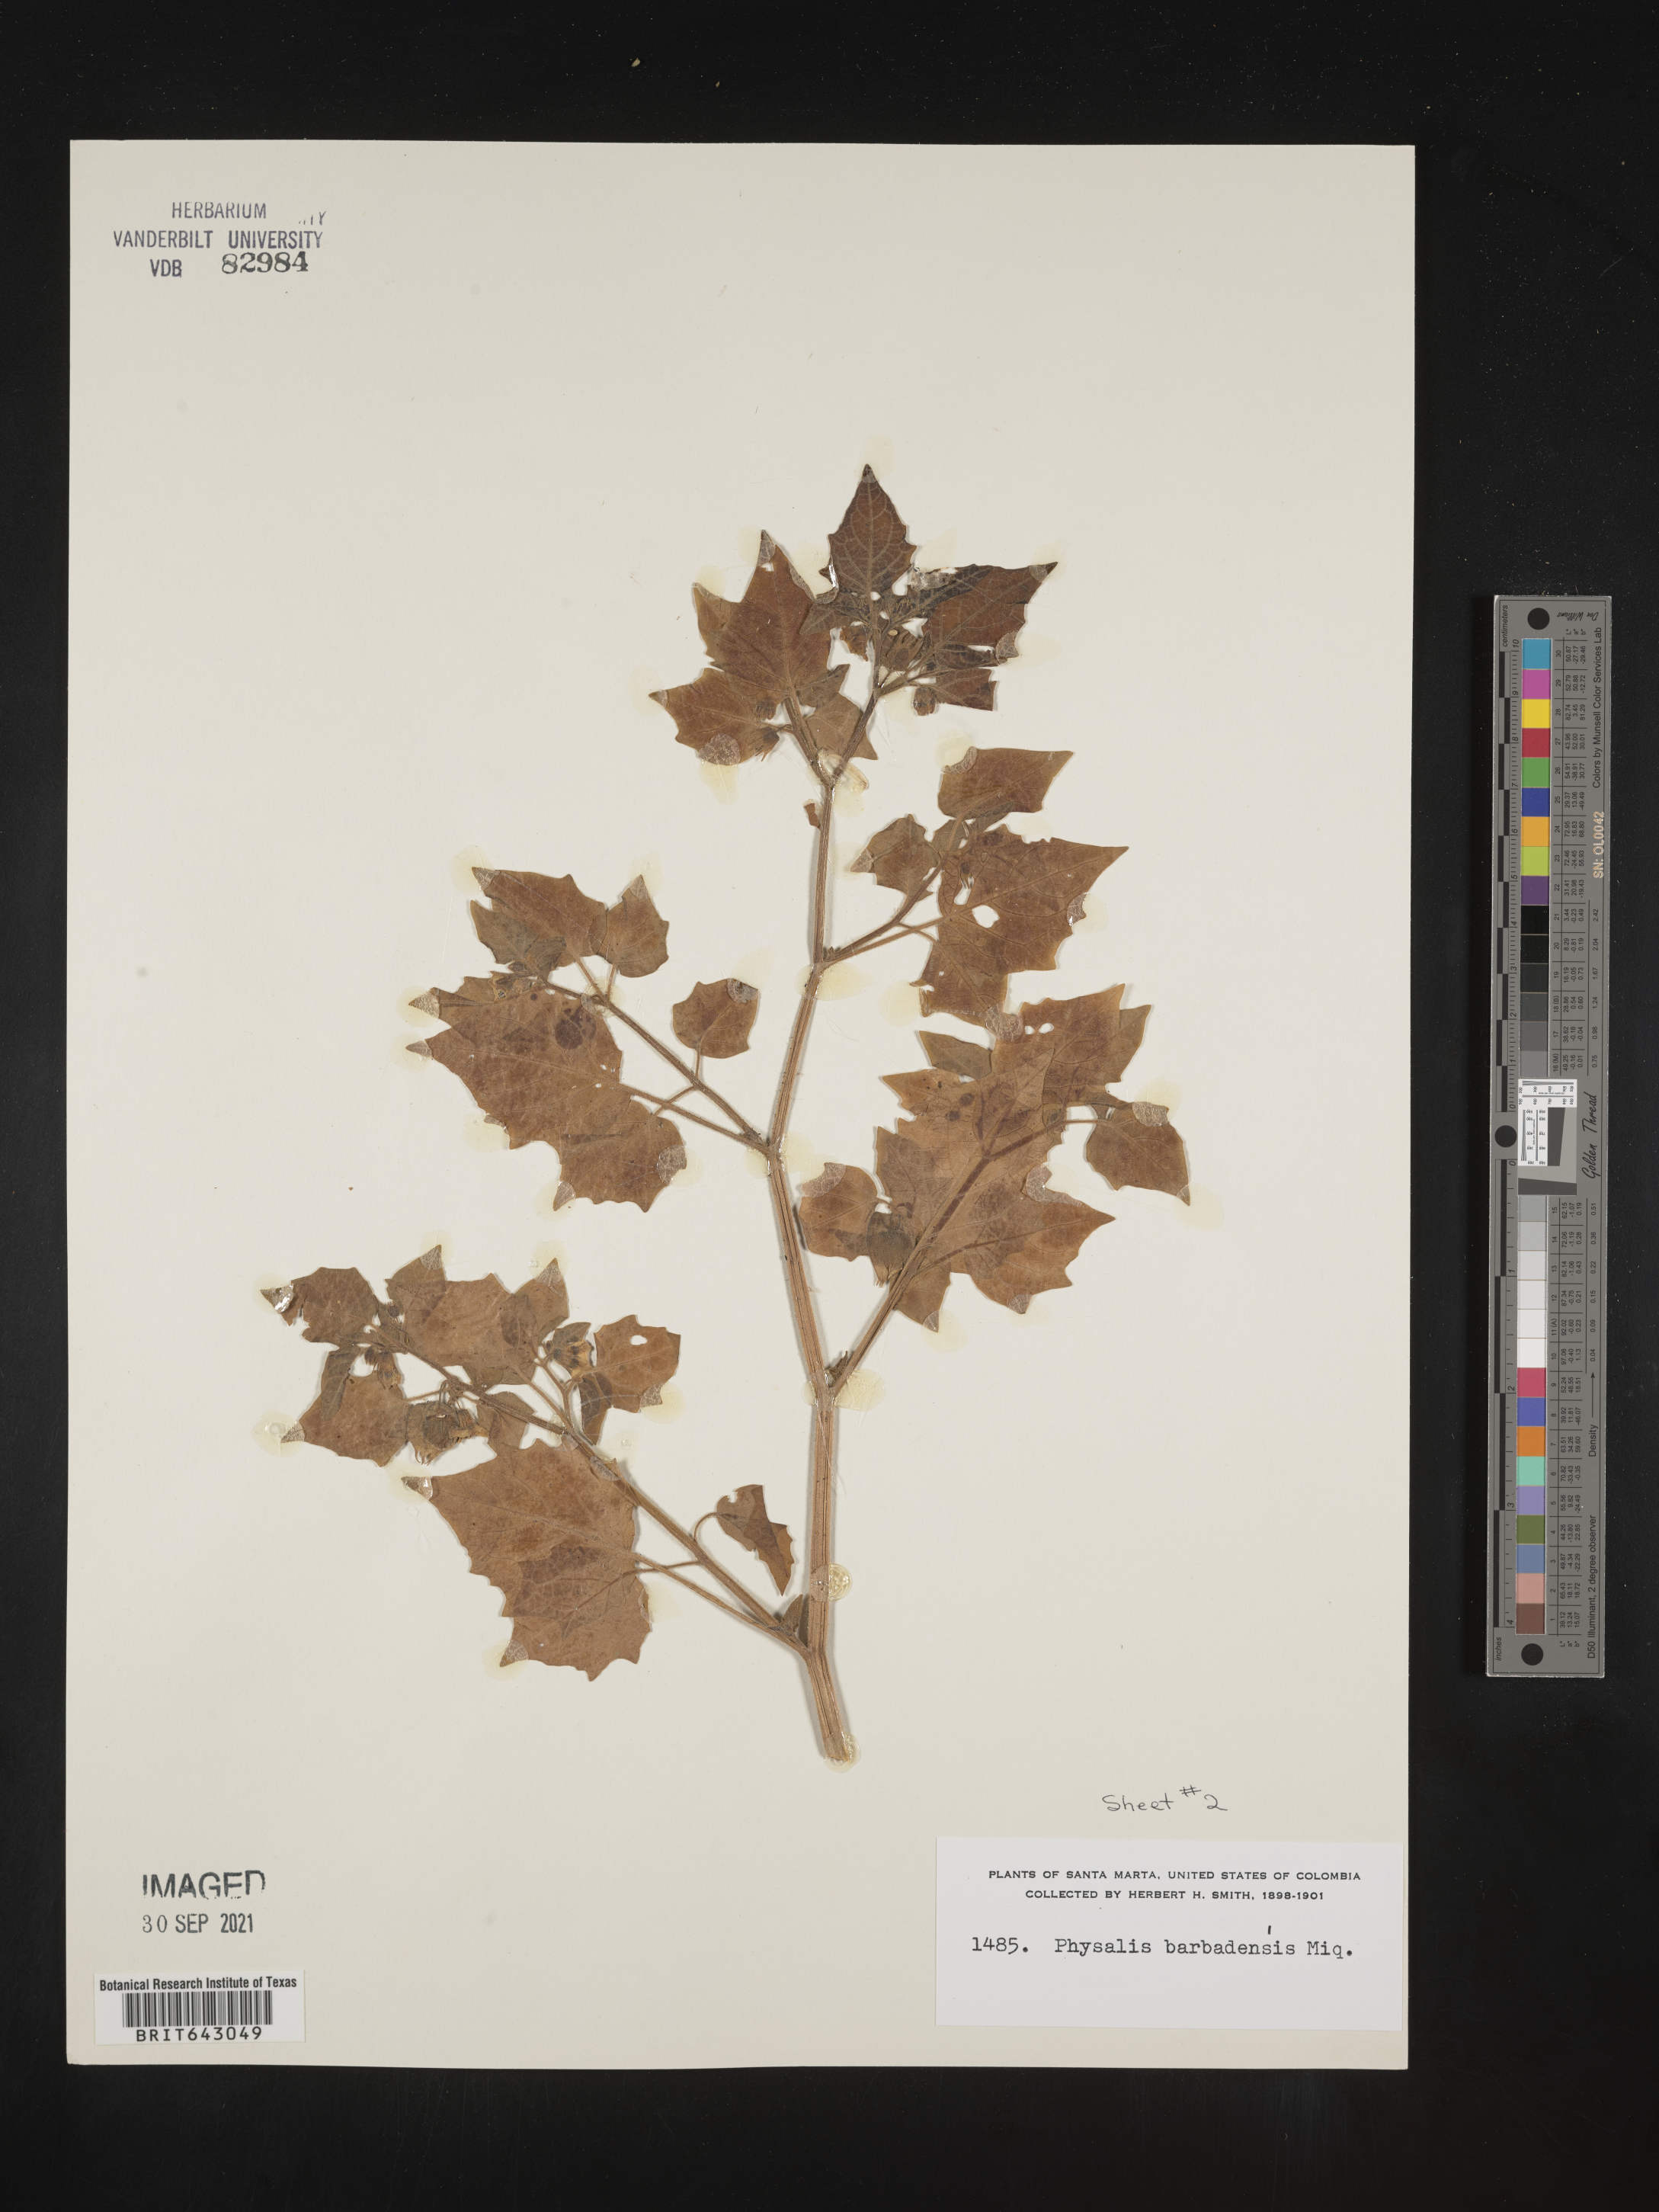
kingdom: Plantae
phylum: Tracheophyta
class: Magnoliopsida
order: Solanales
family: Solanaceae
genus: Physalis
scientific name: Physalis
